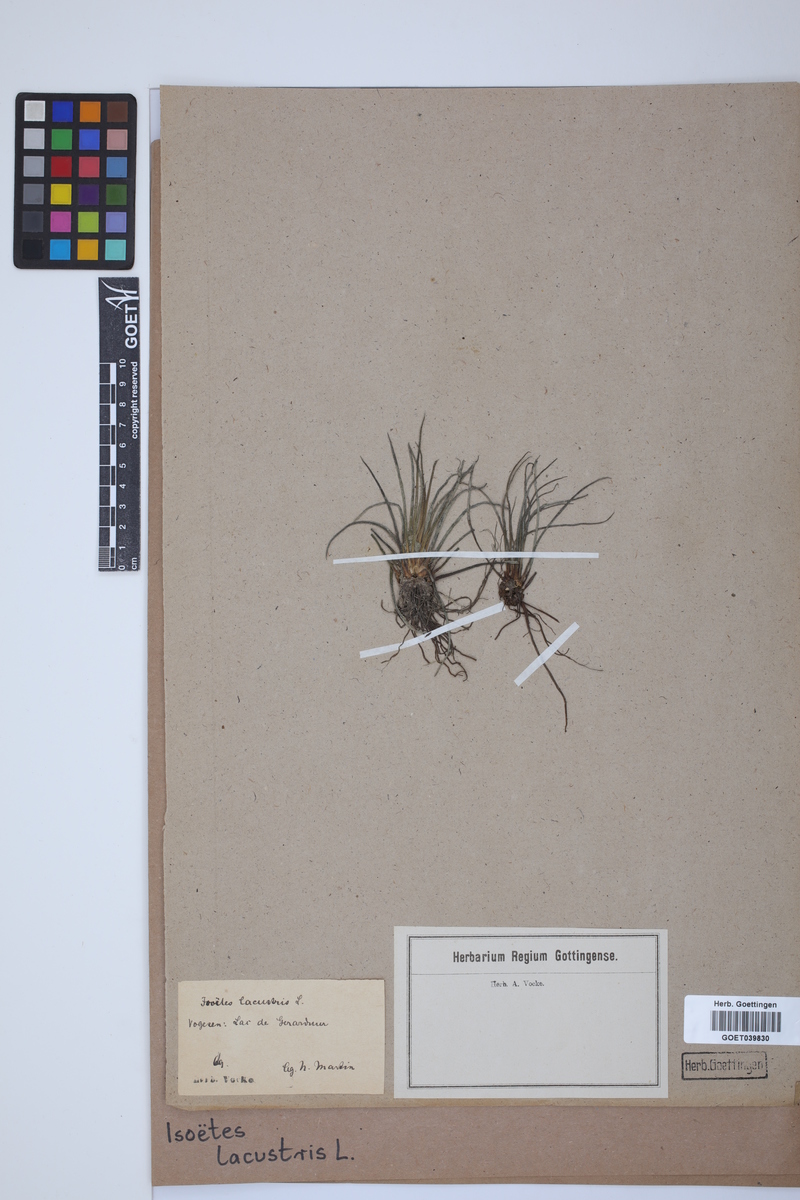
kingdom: Plantae
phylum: Tracheophyta
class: Lycopodiopsida
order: Isoetales
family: Isoetaceae
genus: Isoetes
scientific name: Isoetes lacustris
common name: Common quillwort
